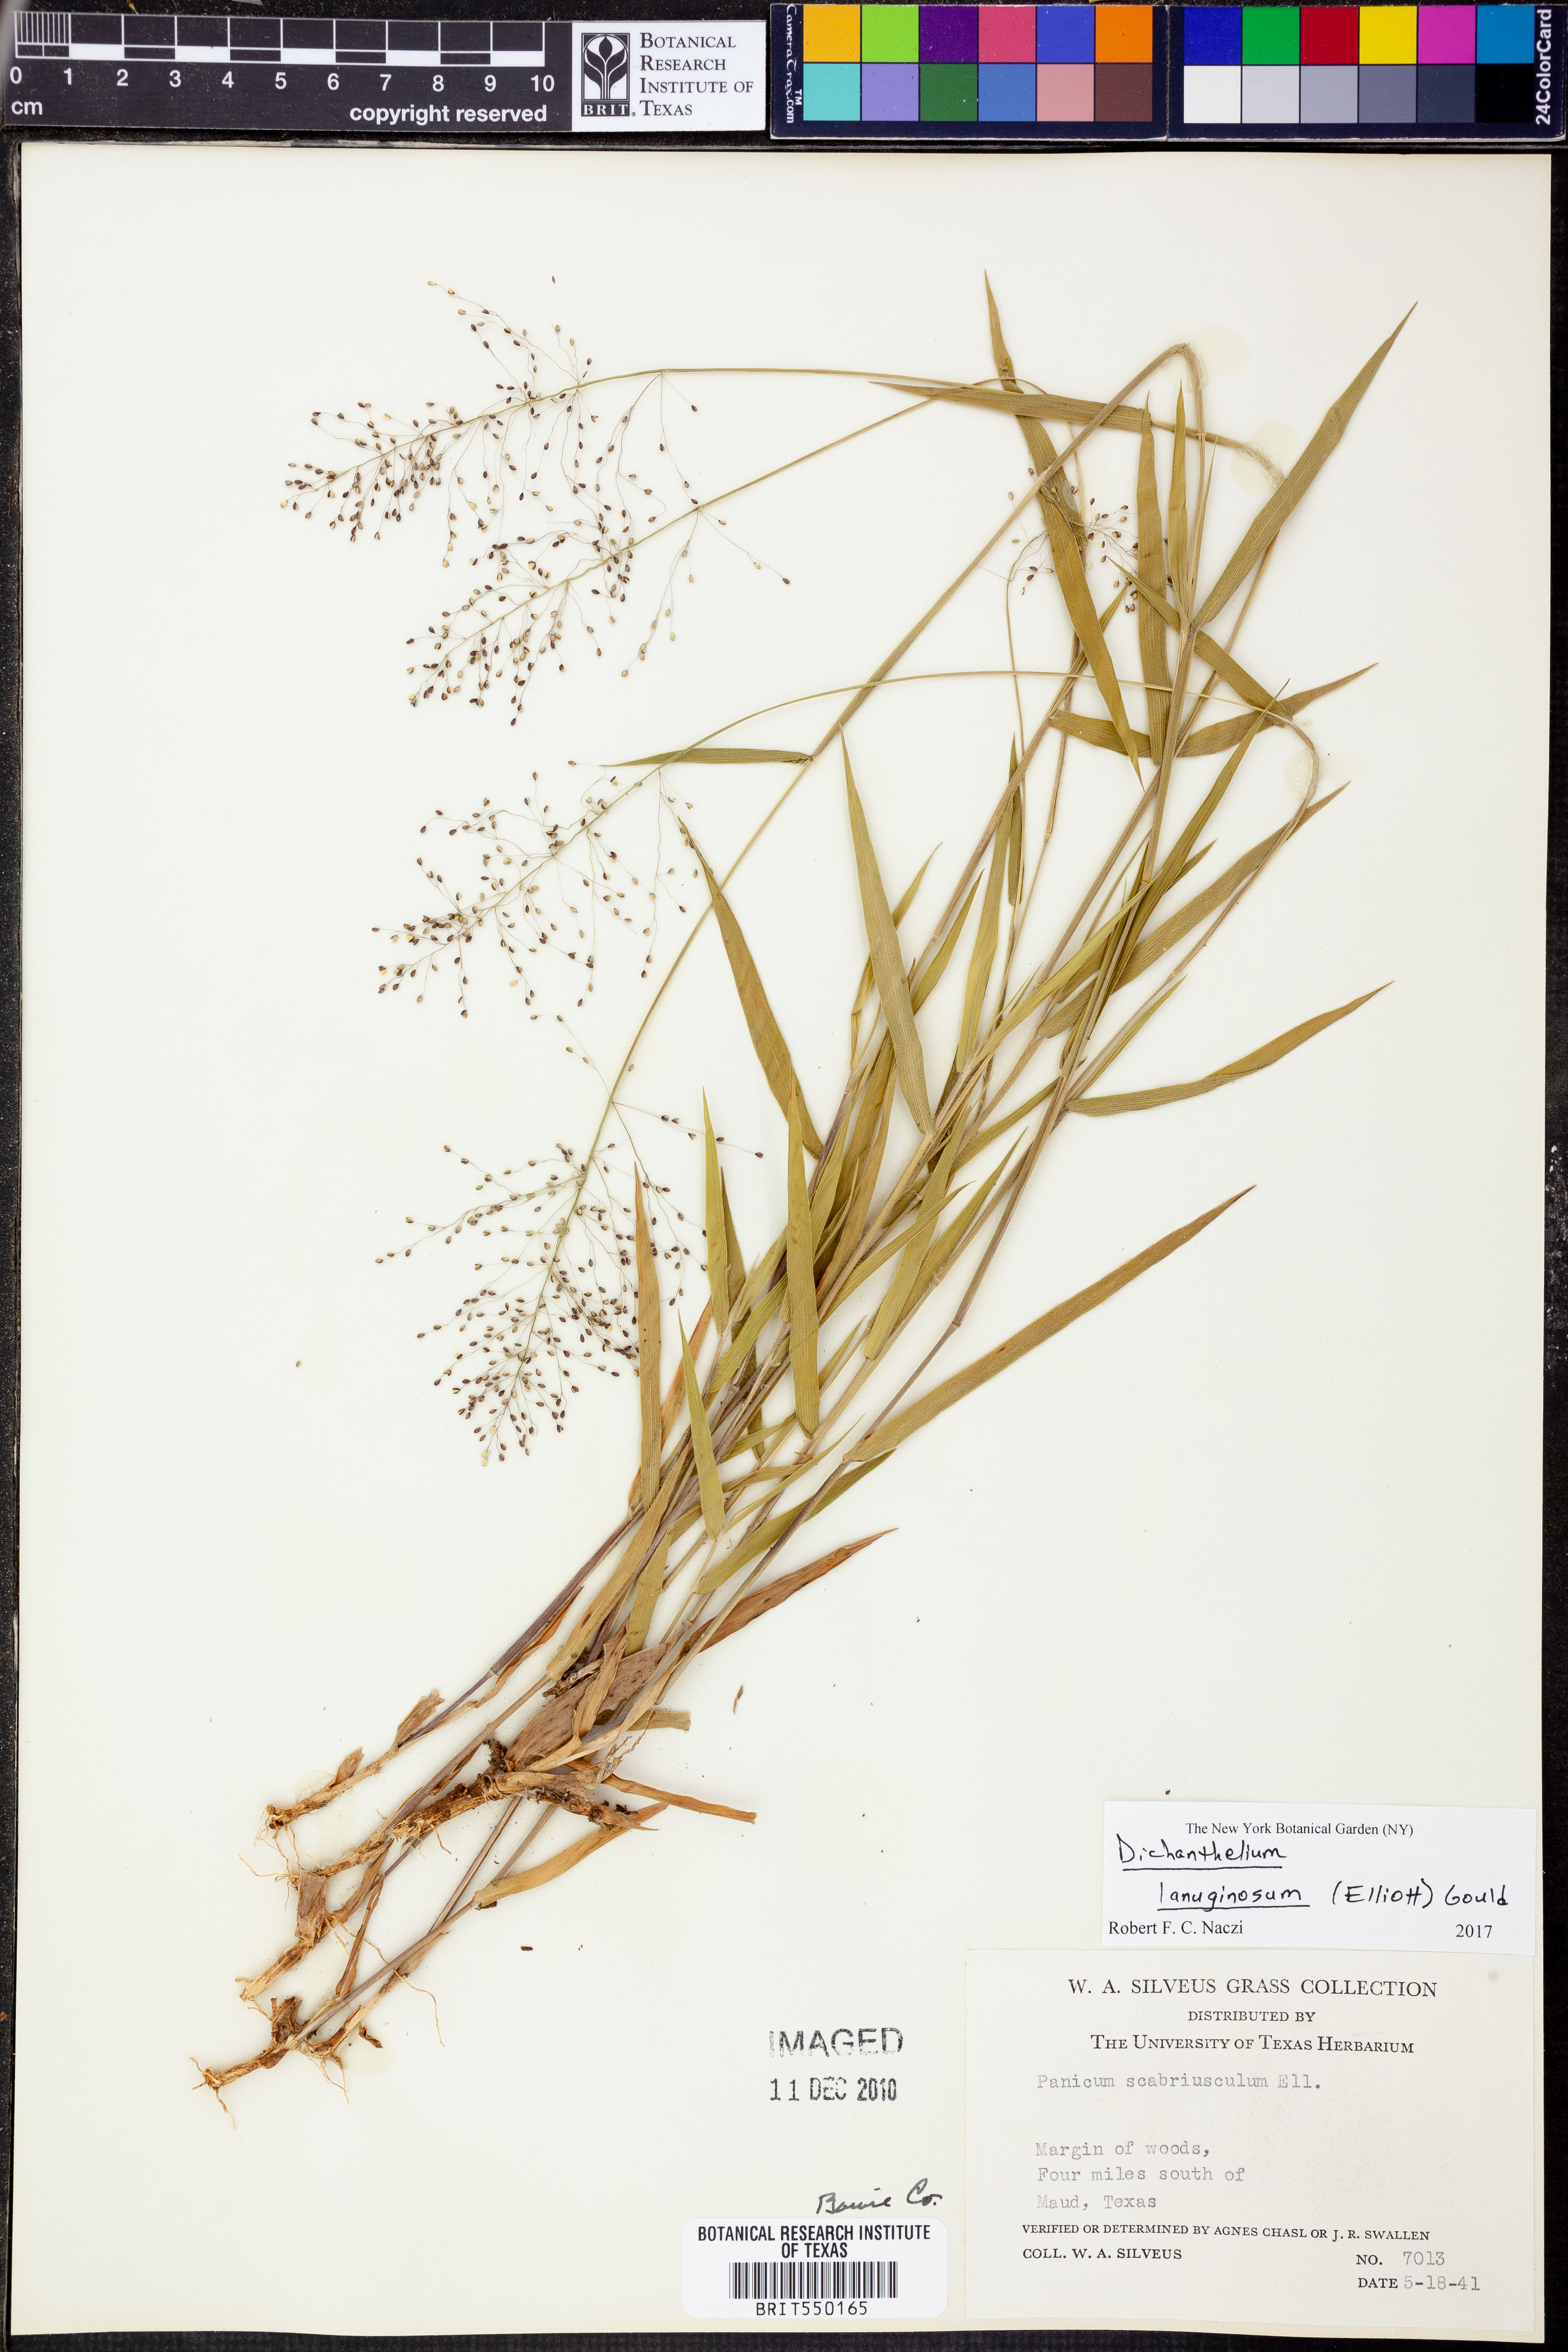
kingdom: Plantae
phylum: Tracheophyta
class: Liliopsida
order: Poales
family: Poaceae
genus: Dichanthelium
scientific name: Dichanthelium lanuginosum
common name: Woolly panicgrass
